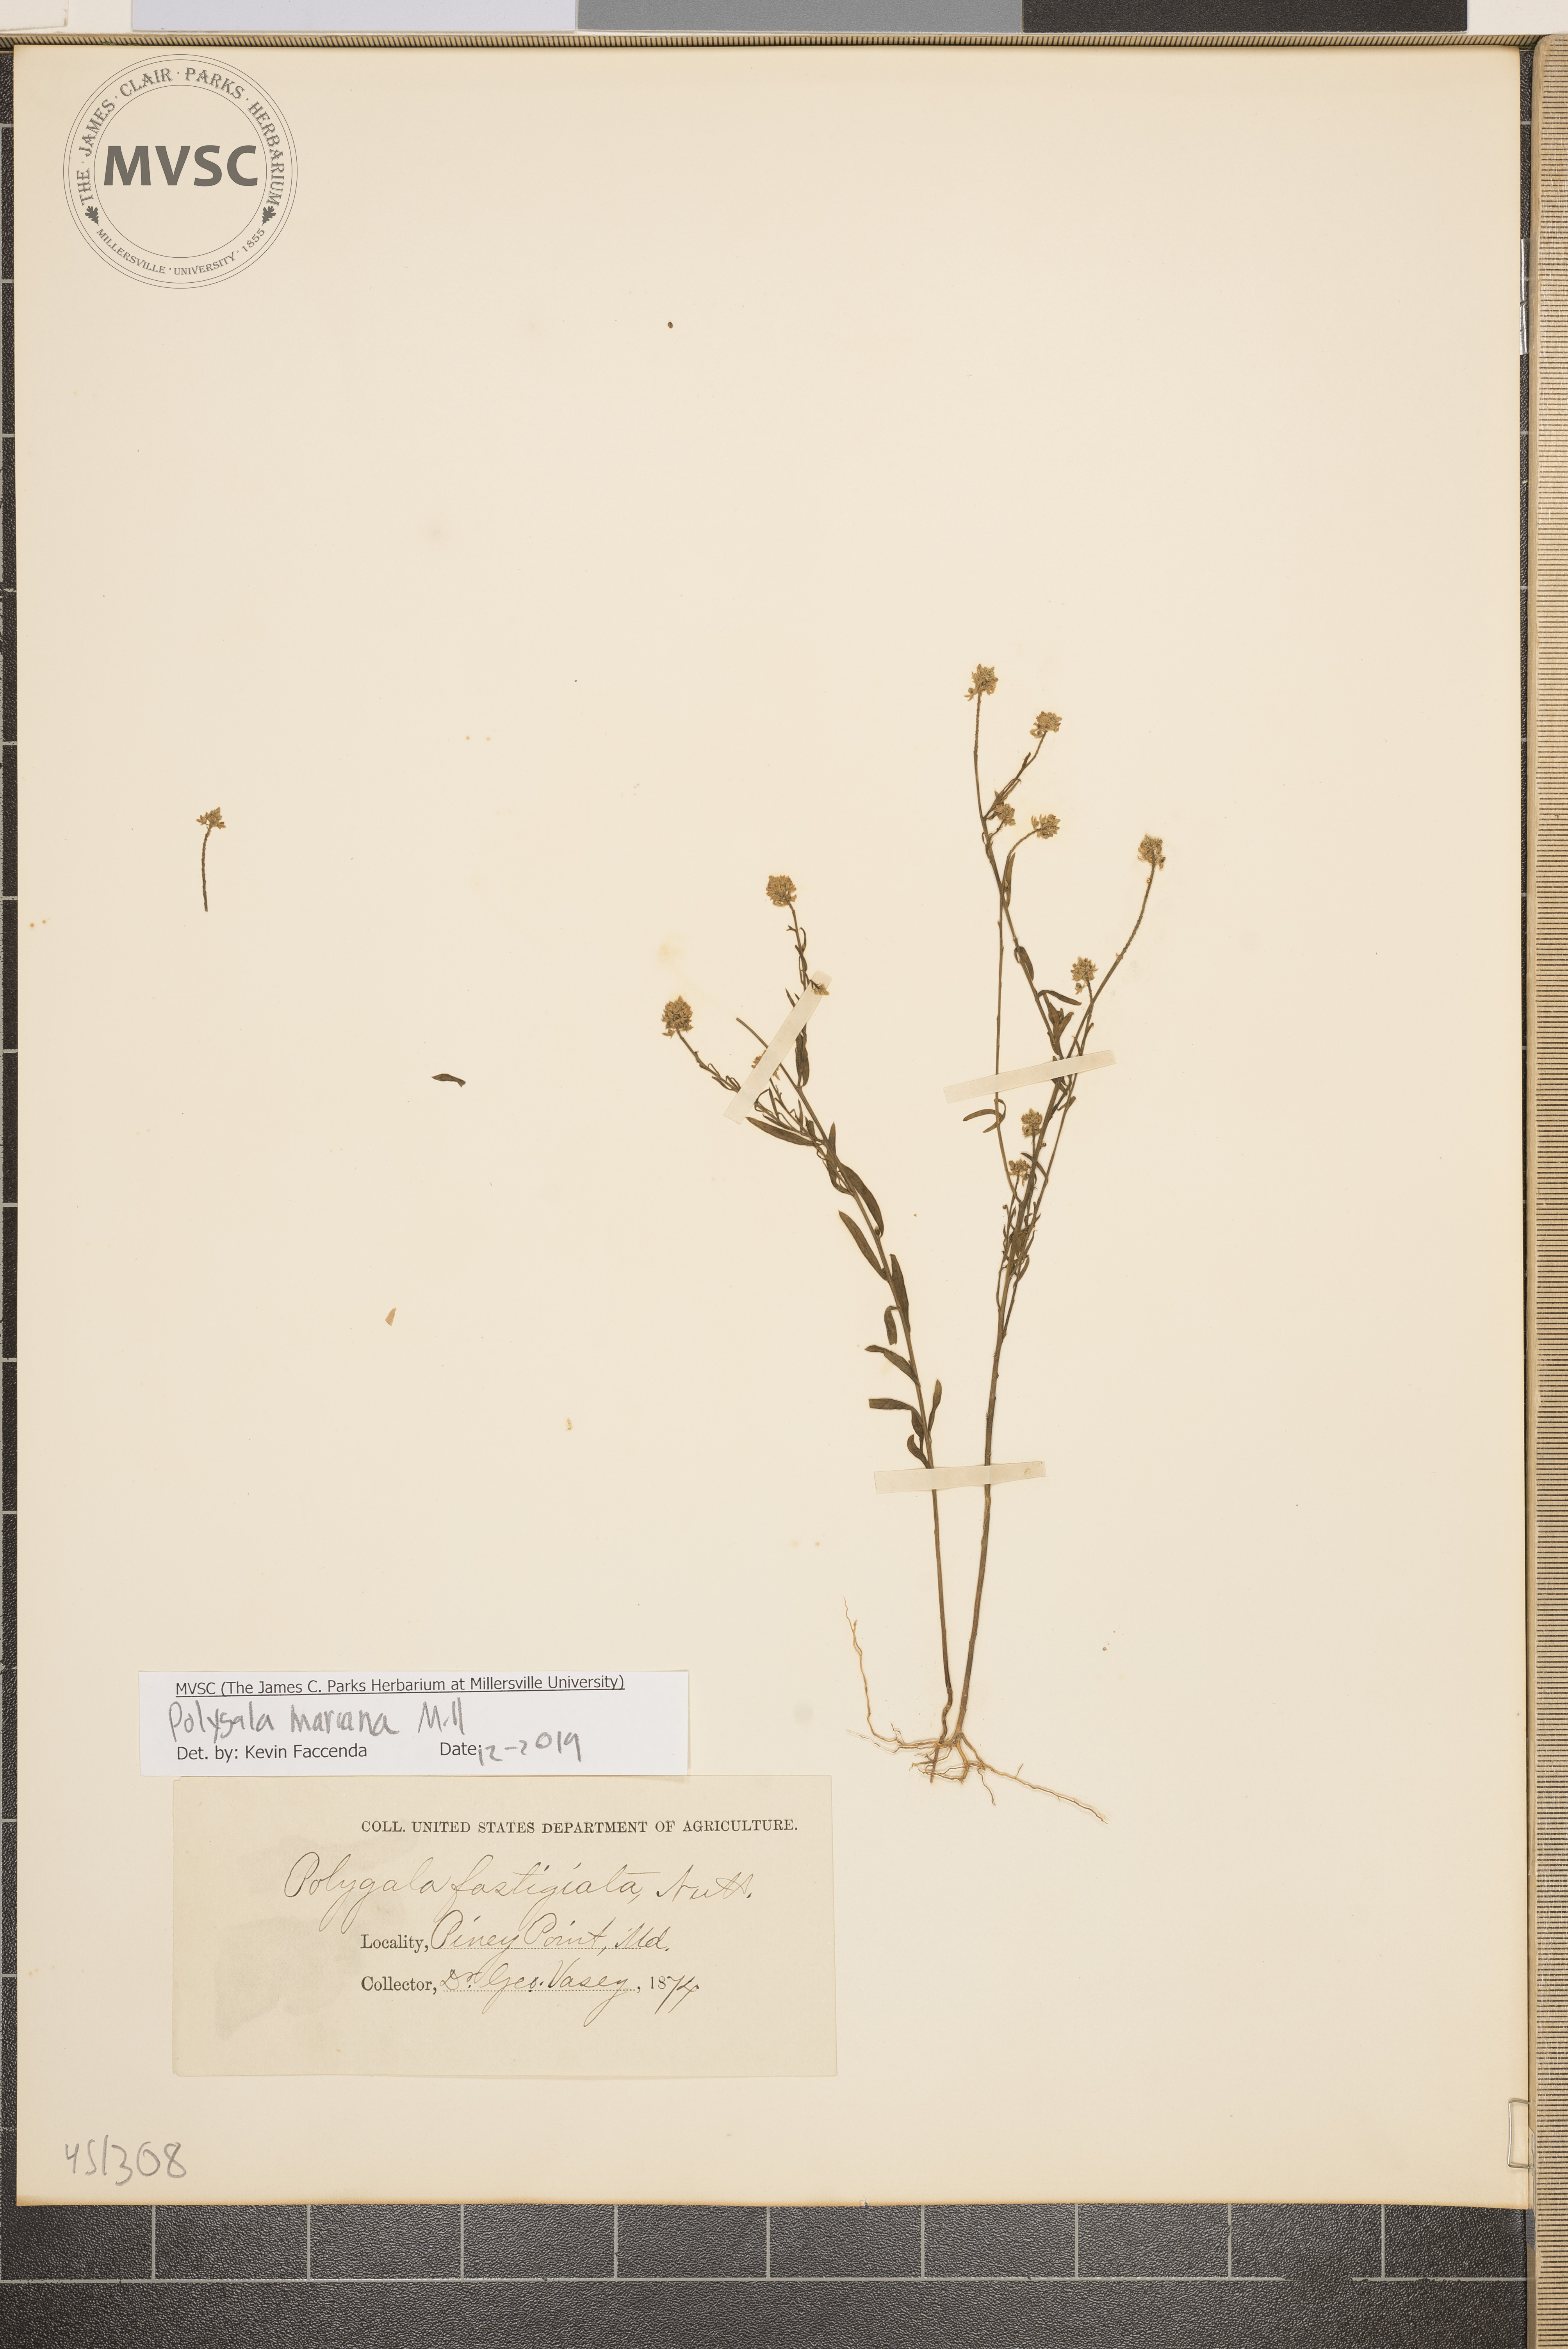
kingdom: Plantae
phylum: Tracheophyta
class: Magnoliopsida
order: Fabales
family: Polygalaceae
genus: Polygala
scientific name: Polygala mariana
